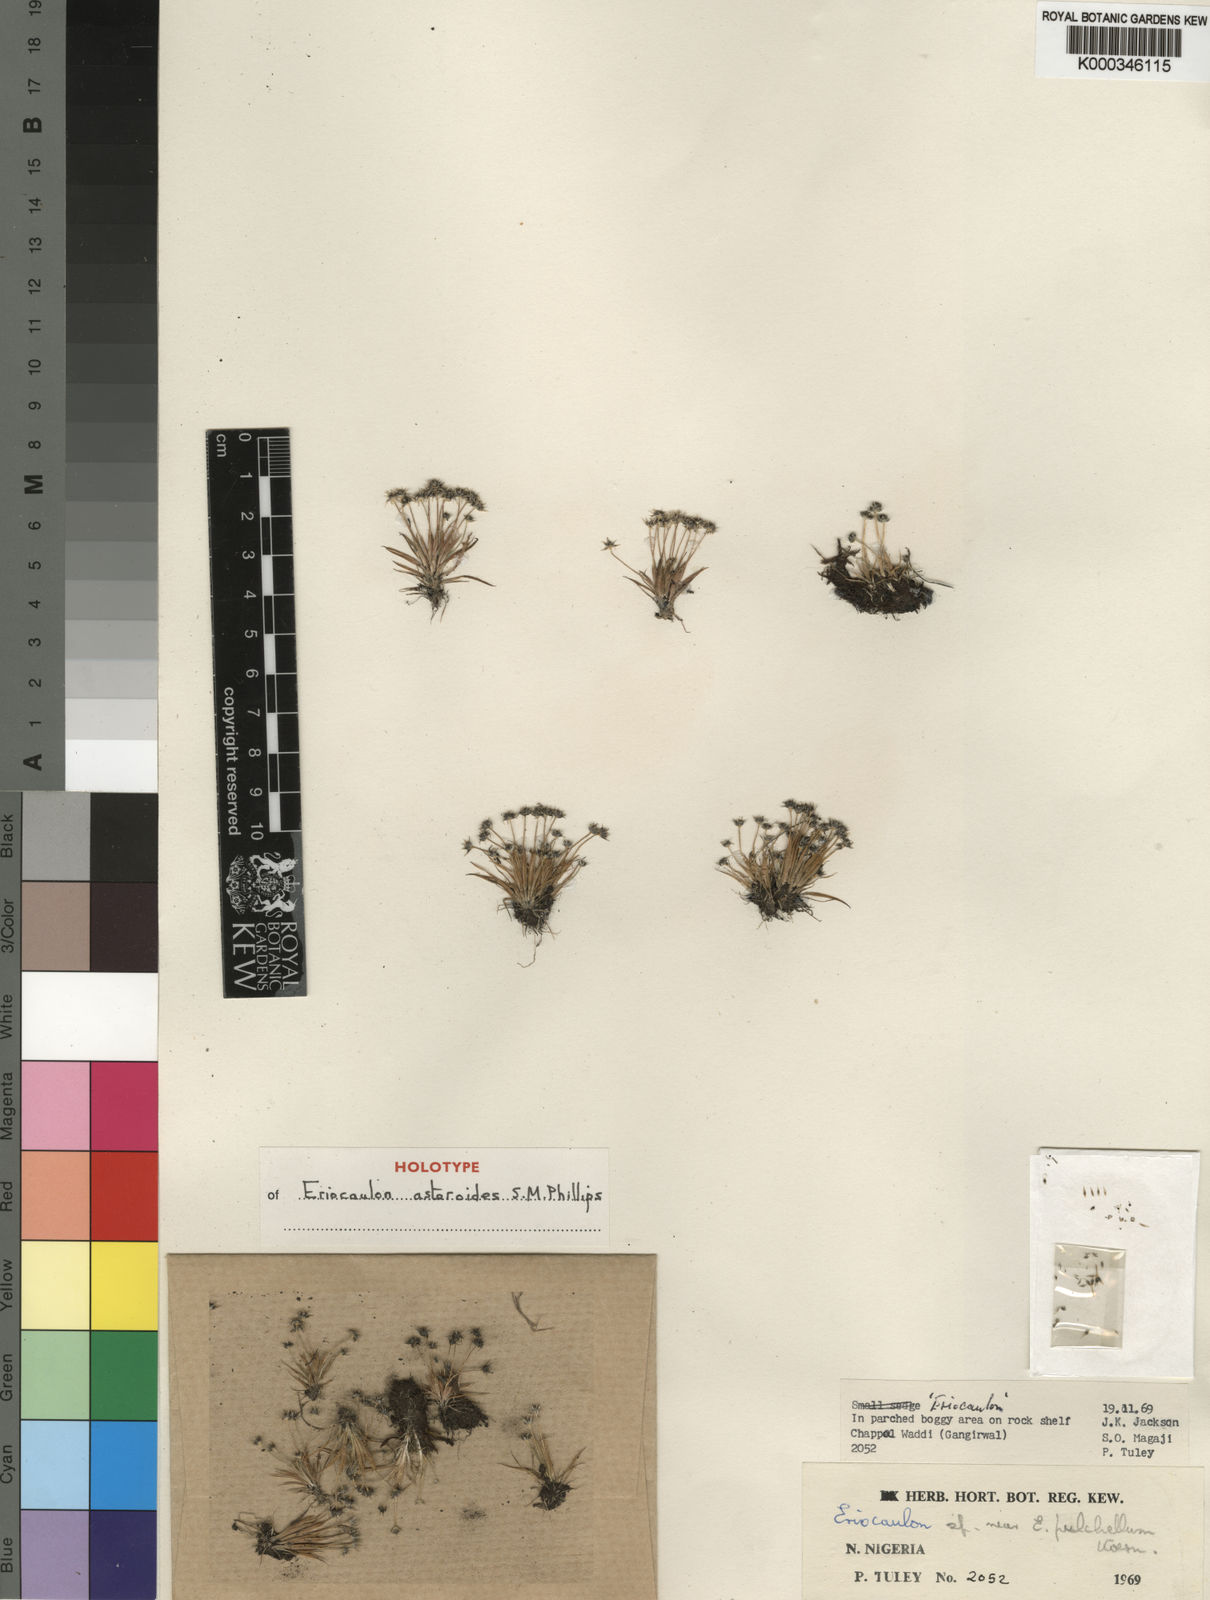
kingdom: Plantae
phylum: Tracheophyta
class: Liliopsida
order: Poales
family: Eriocaulaceae
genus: Eriocaulon
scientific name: Eriocaulon asteroides
